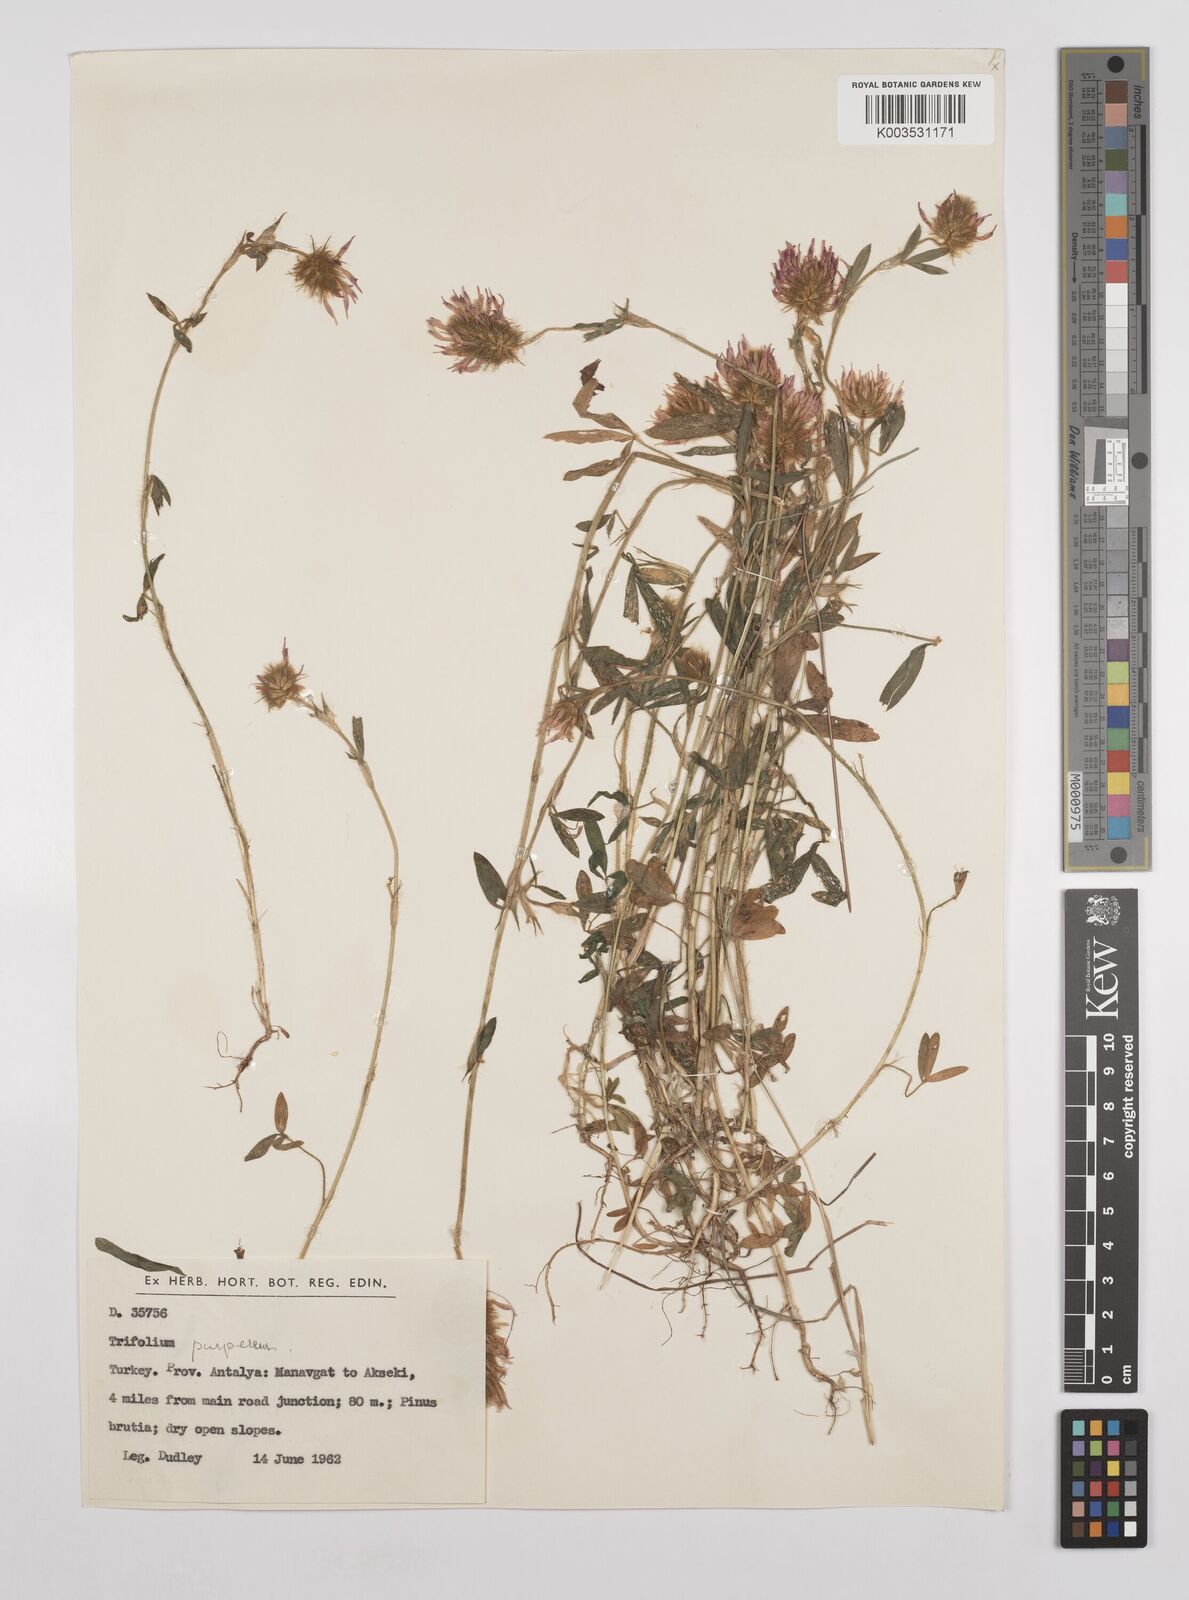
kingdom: Plantae
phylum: Tracheophyta
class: Magnoliopsida
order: Fabales
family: Fabaceae
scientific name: Fabaceae
